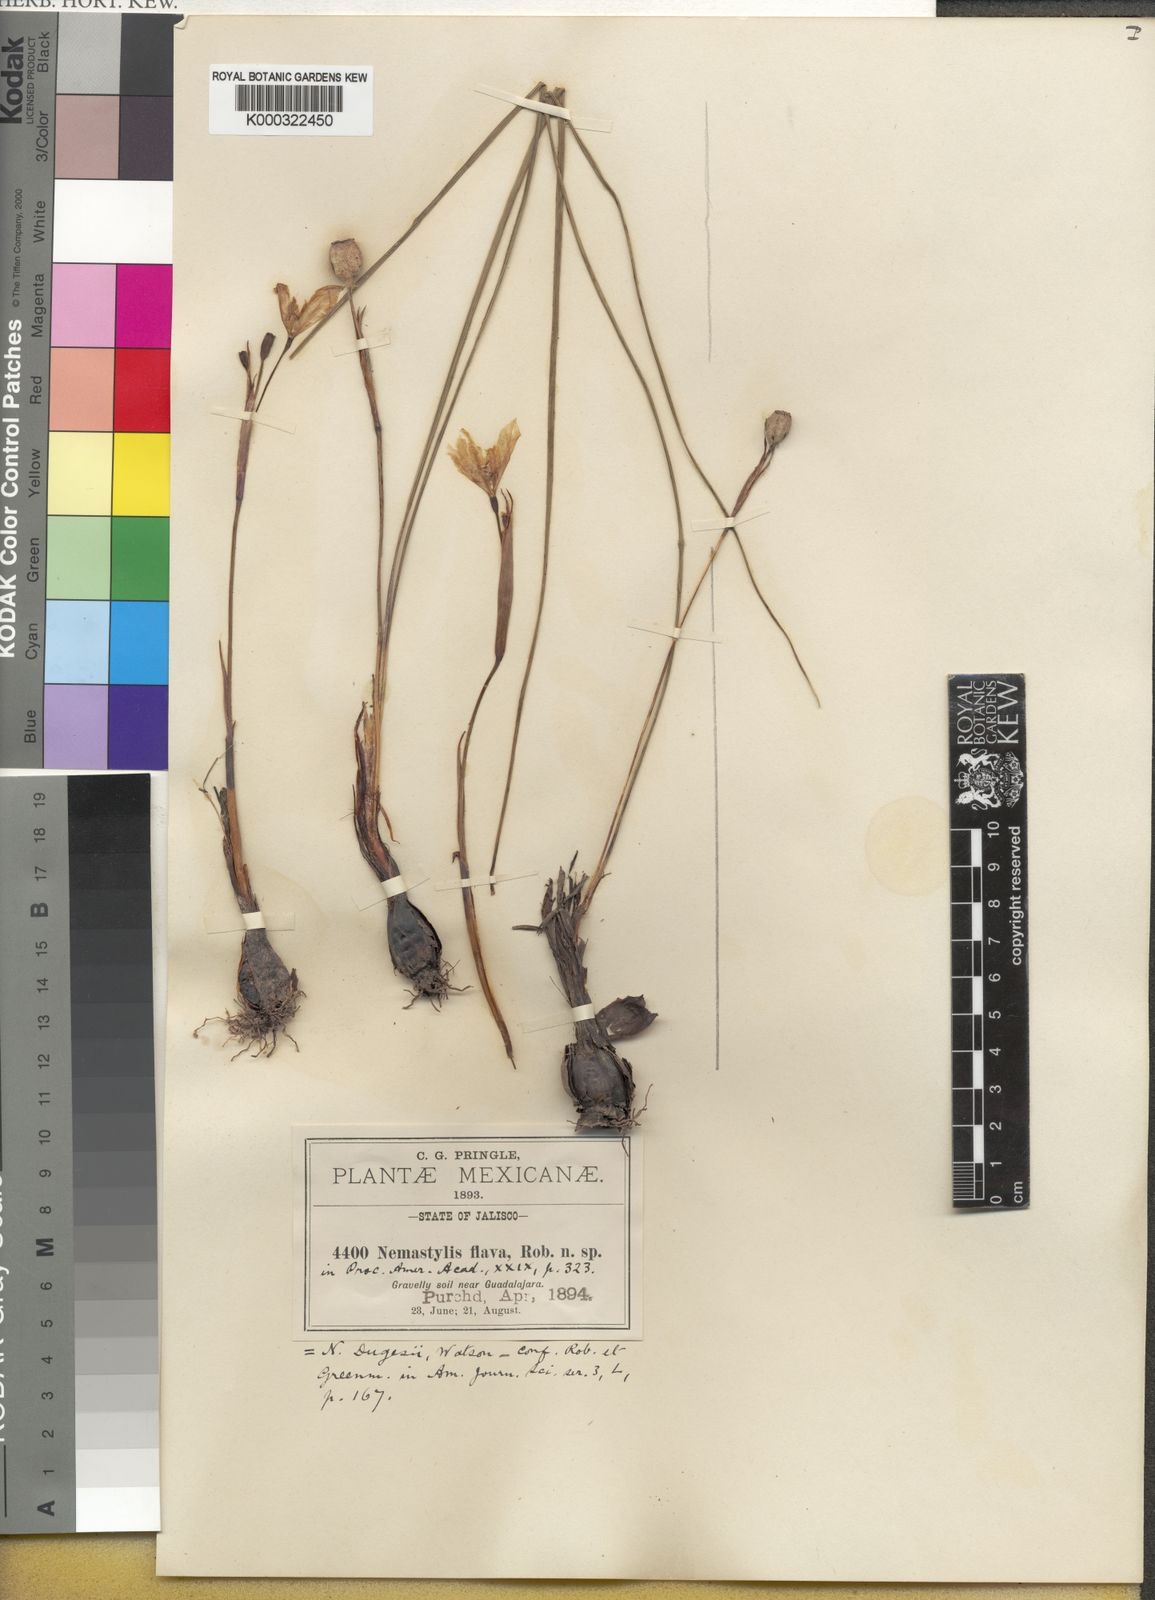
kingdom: Plantae
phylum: Tracheophyta
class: Liliopsida
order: Asparagales
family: Iridaceae
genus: Tigridia
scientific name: Tigridia dugesii
